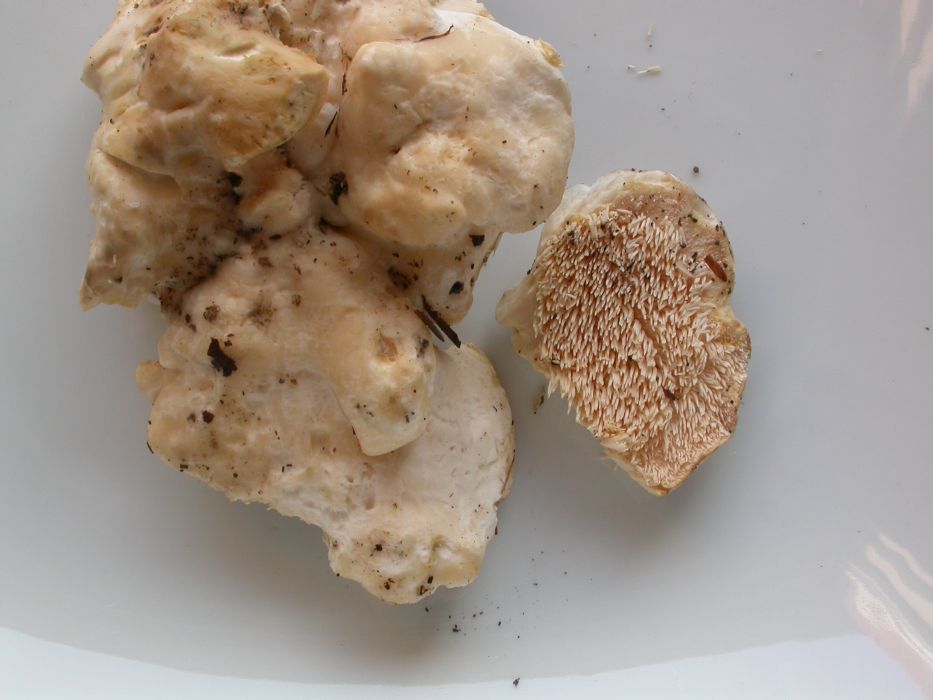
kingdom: Fungi
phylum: Basidiomycota
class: Agaricomycetes
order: Cantharellales
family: Hydnaceae
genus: Hydnum
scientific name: Hydnum repandum
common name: hvid pigsvamp
